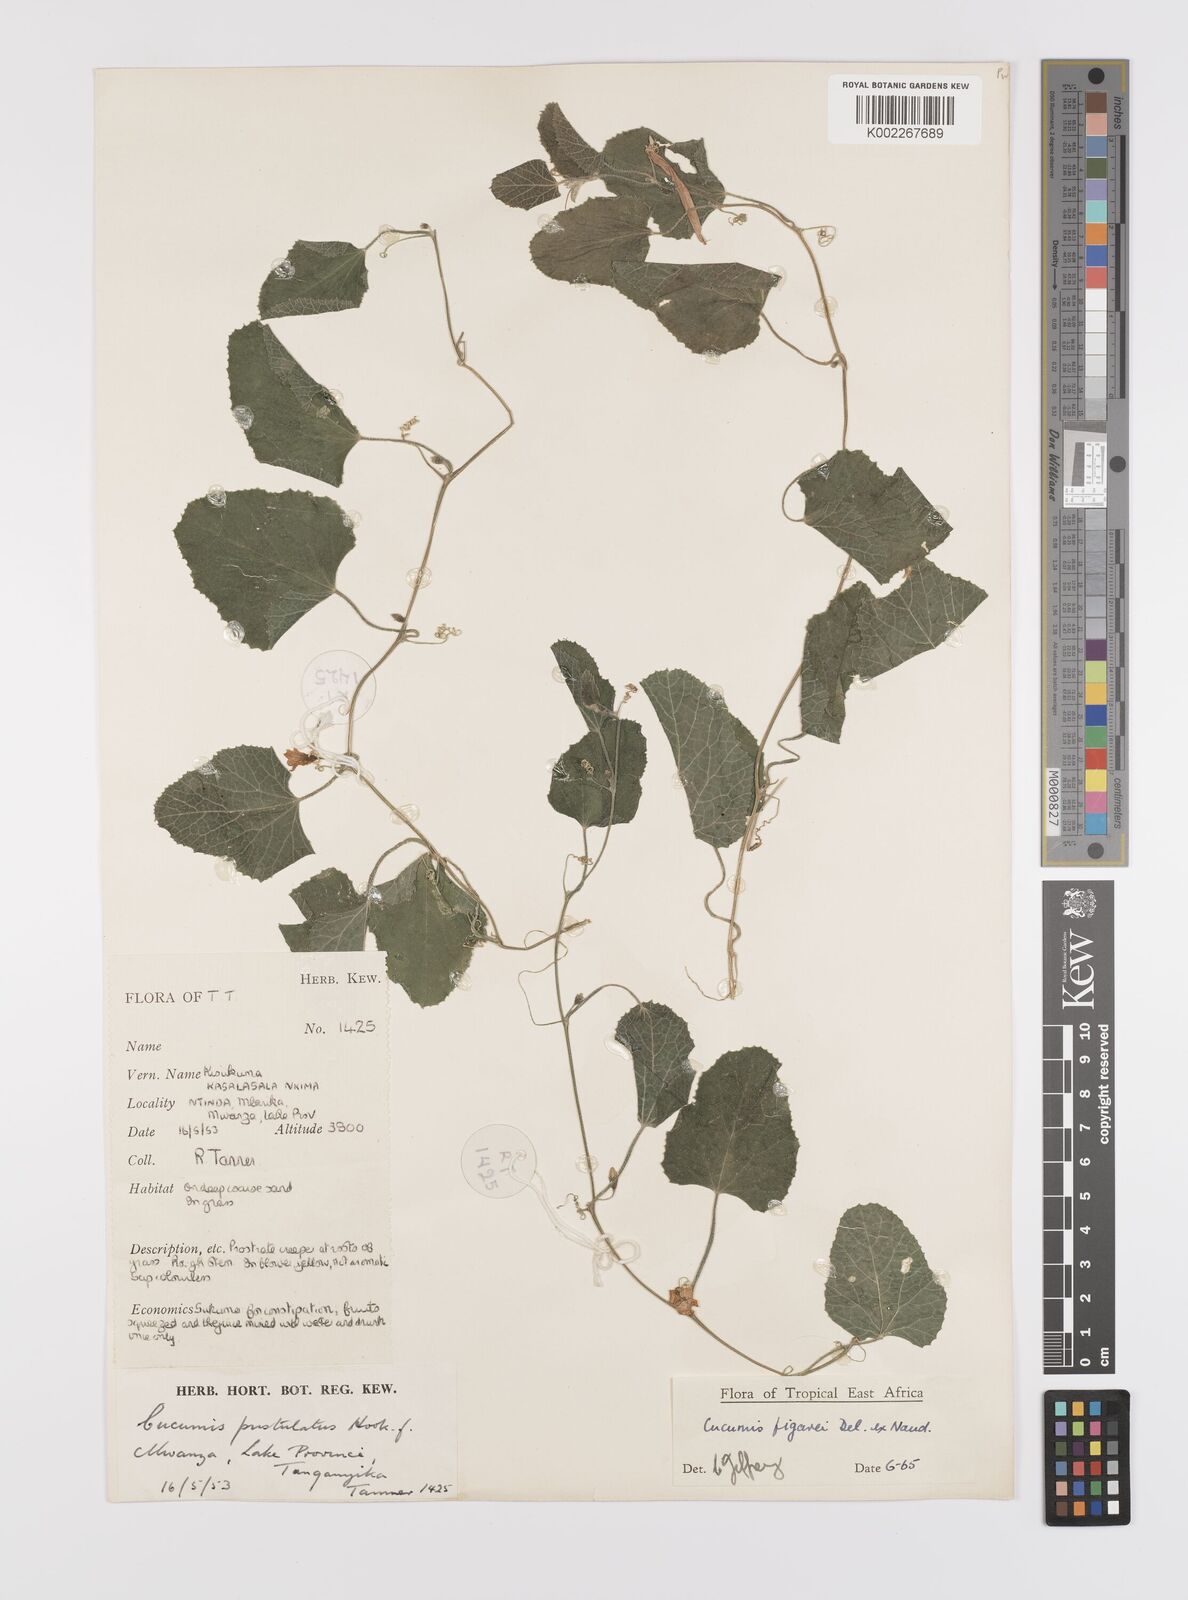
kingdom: Plantae
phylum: Tracheophyta
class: Magnoliopsida
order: Cucurbitales
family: Cucurbitaceae
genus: Cucumis
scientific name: Cucumis
